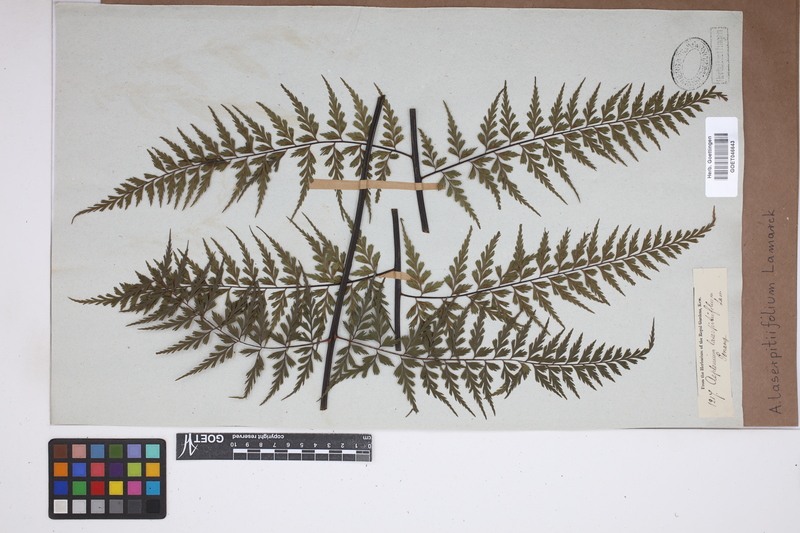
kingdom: Plantae
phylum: Tracheophyta
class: Polypodiopsida
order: Polypodiales
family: Aspleniaceae
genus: Asplenium
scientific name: Asplenium laserpitiifolium
